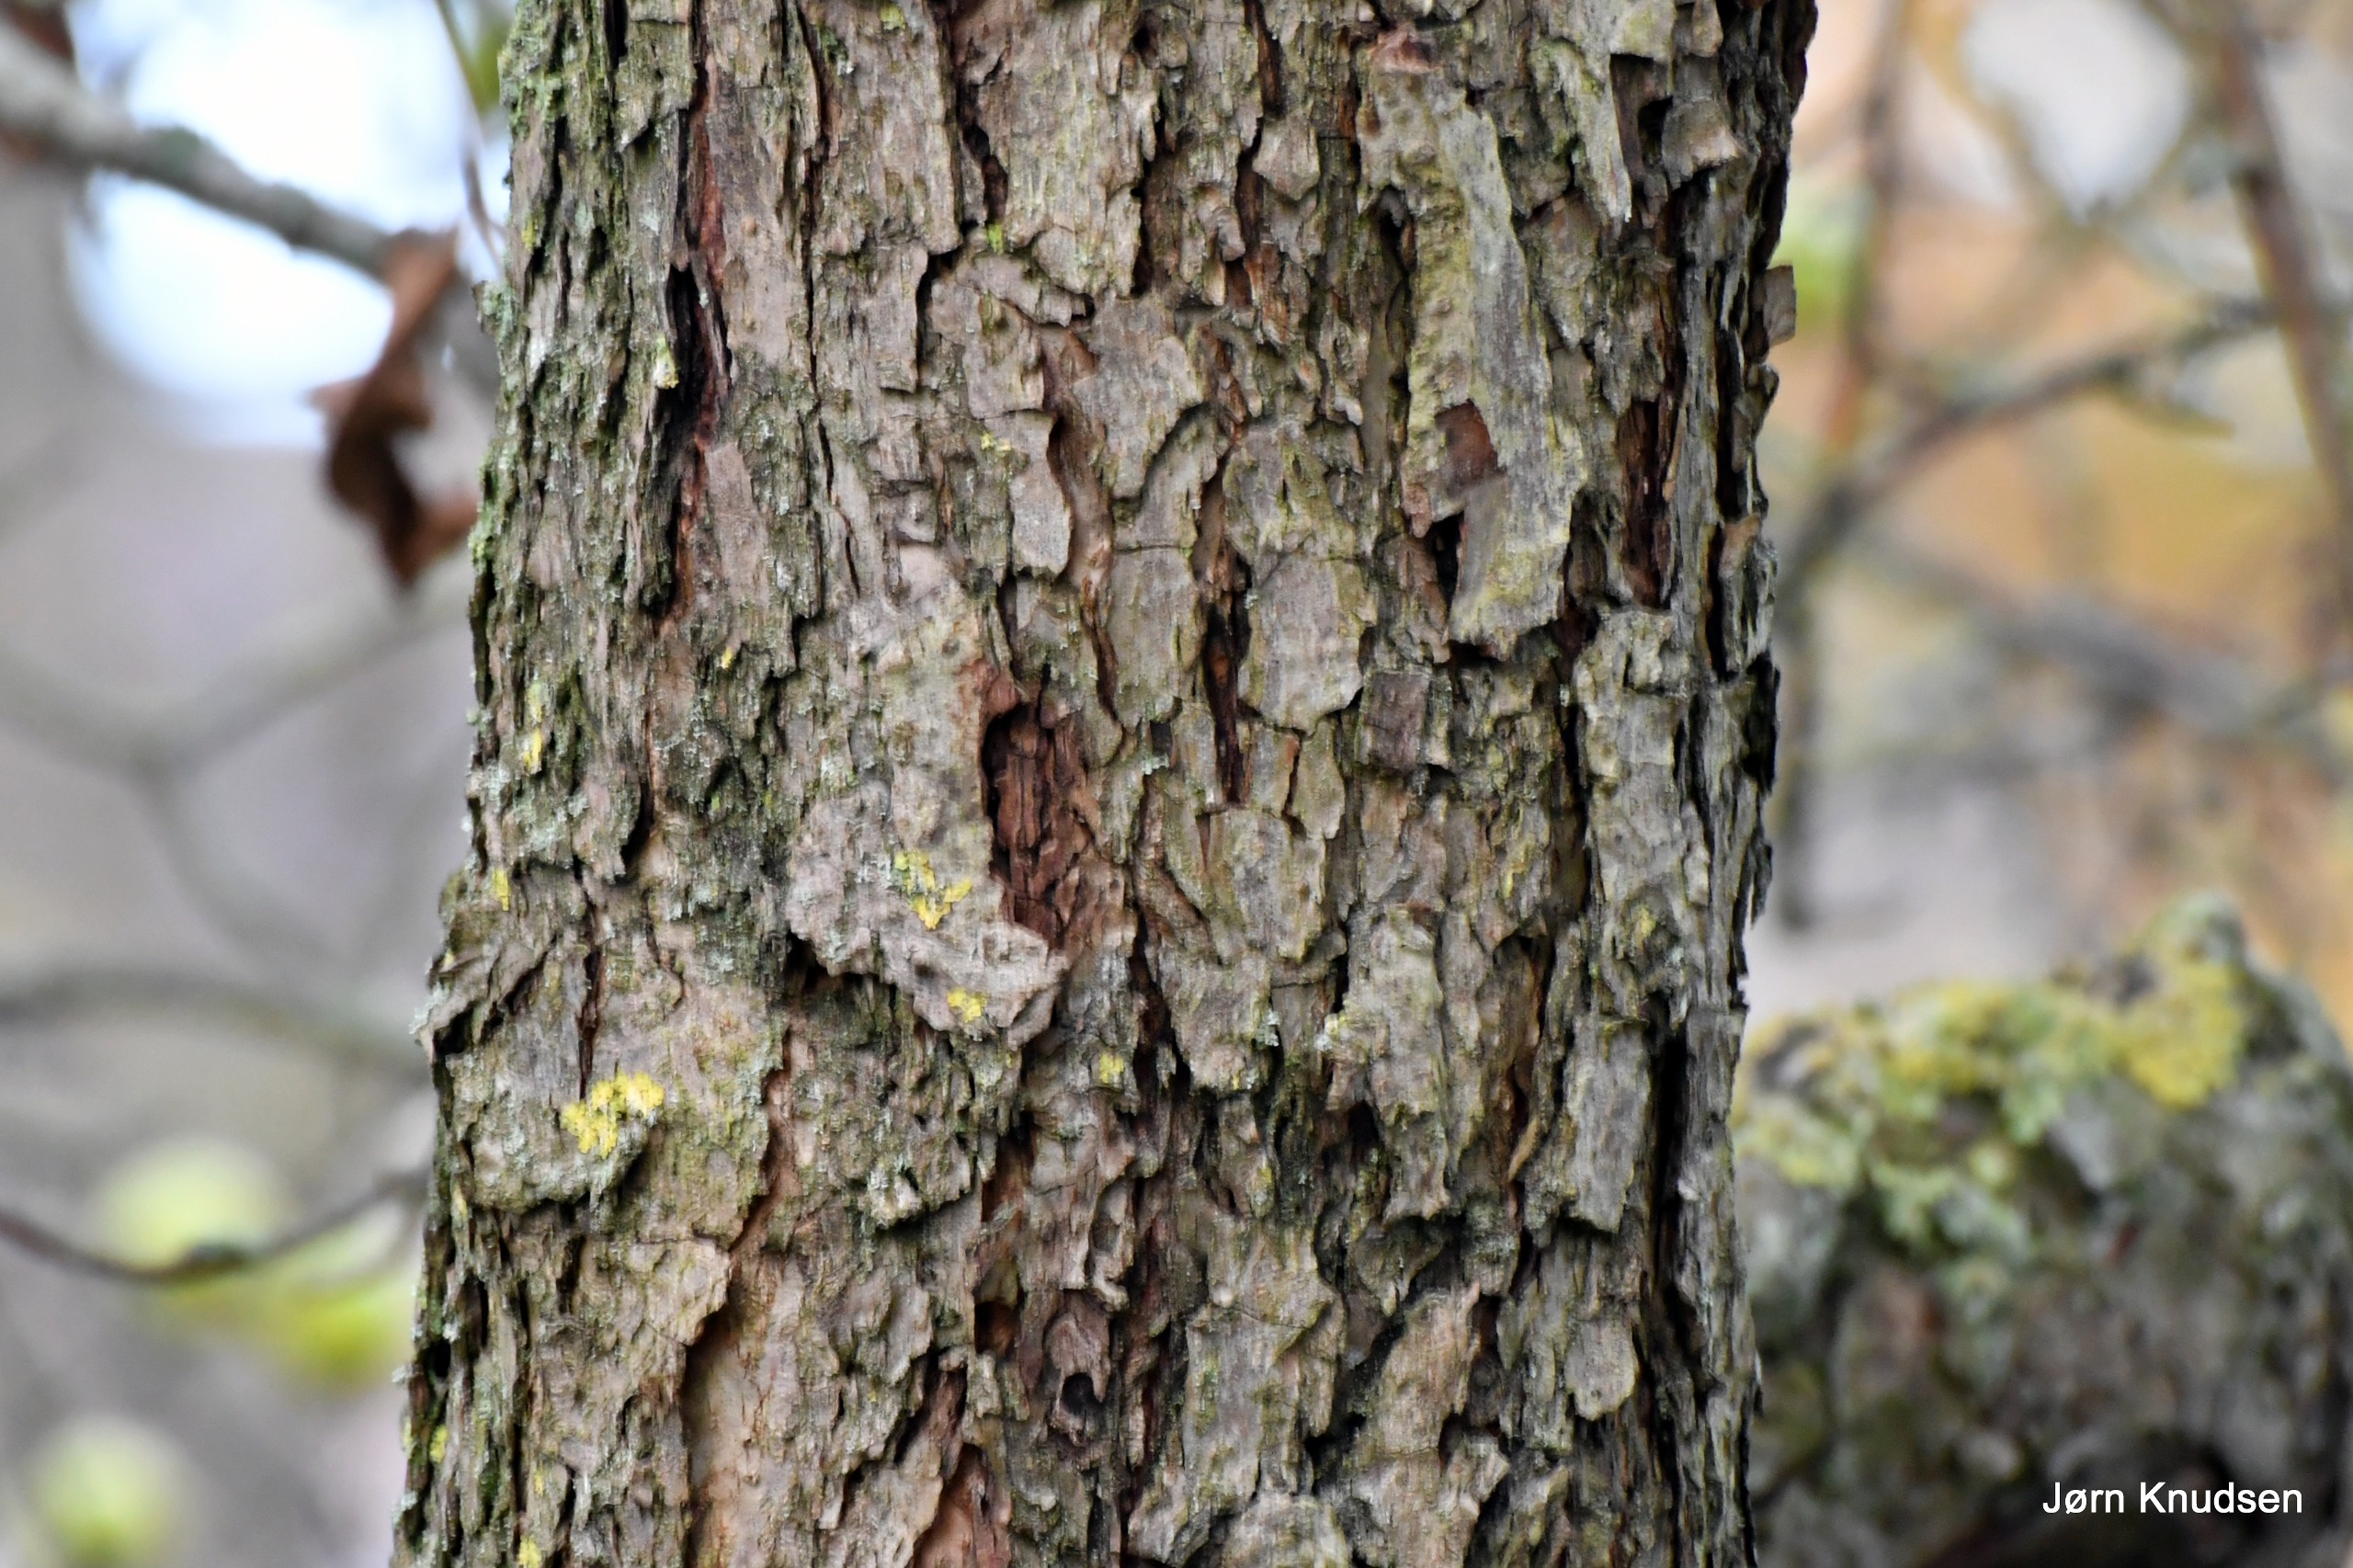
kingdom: Plantae
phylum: Tracheophyta
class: Magnoliopsida
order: Rosales
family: Rosaceae
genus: Malus
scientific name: Malus sylvestris
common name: Skov-æble
